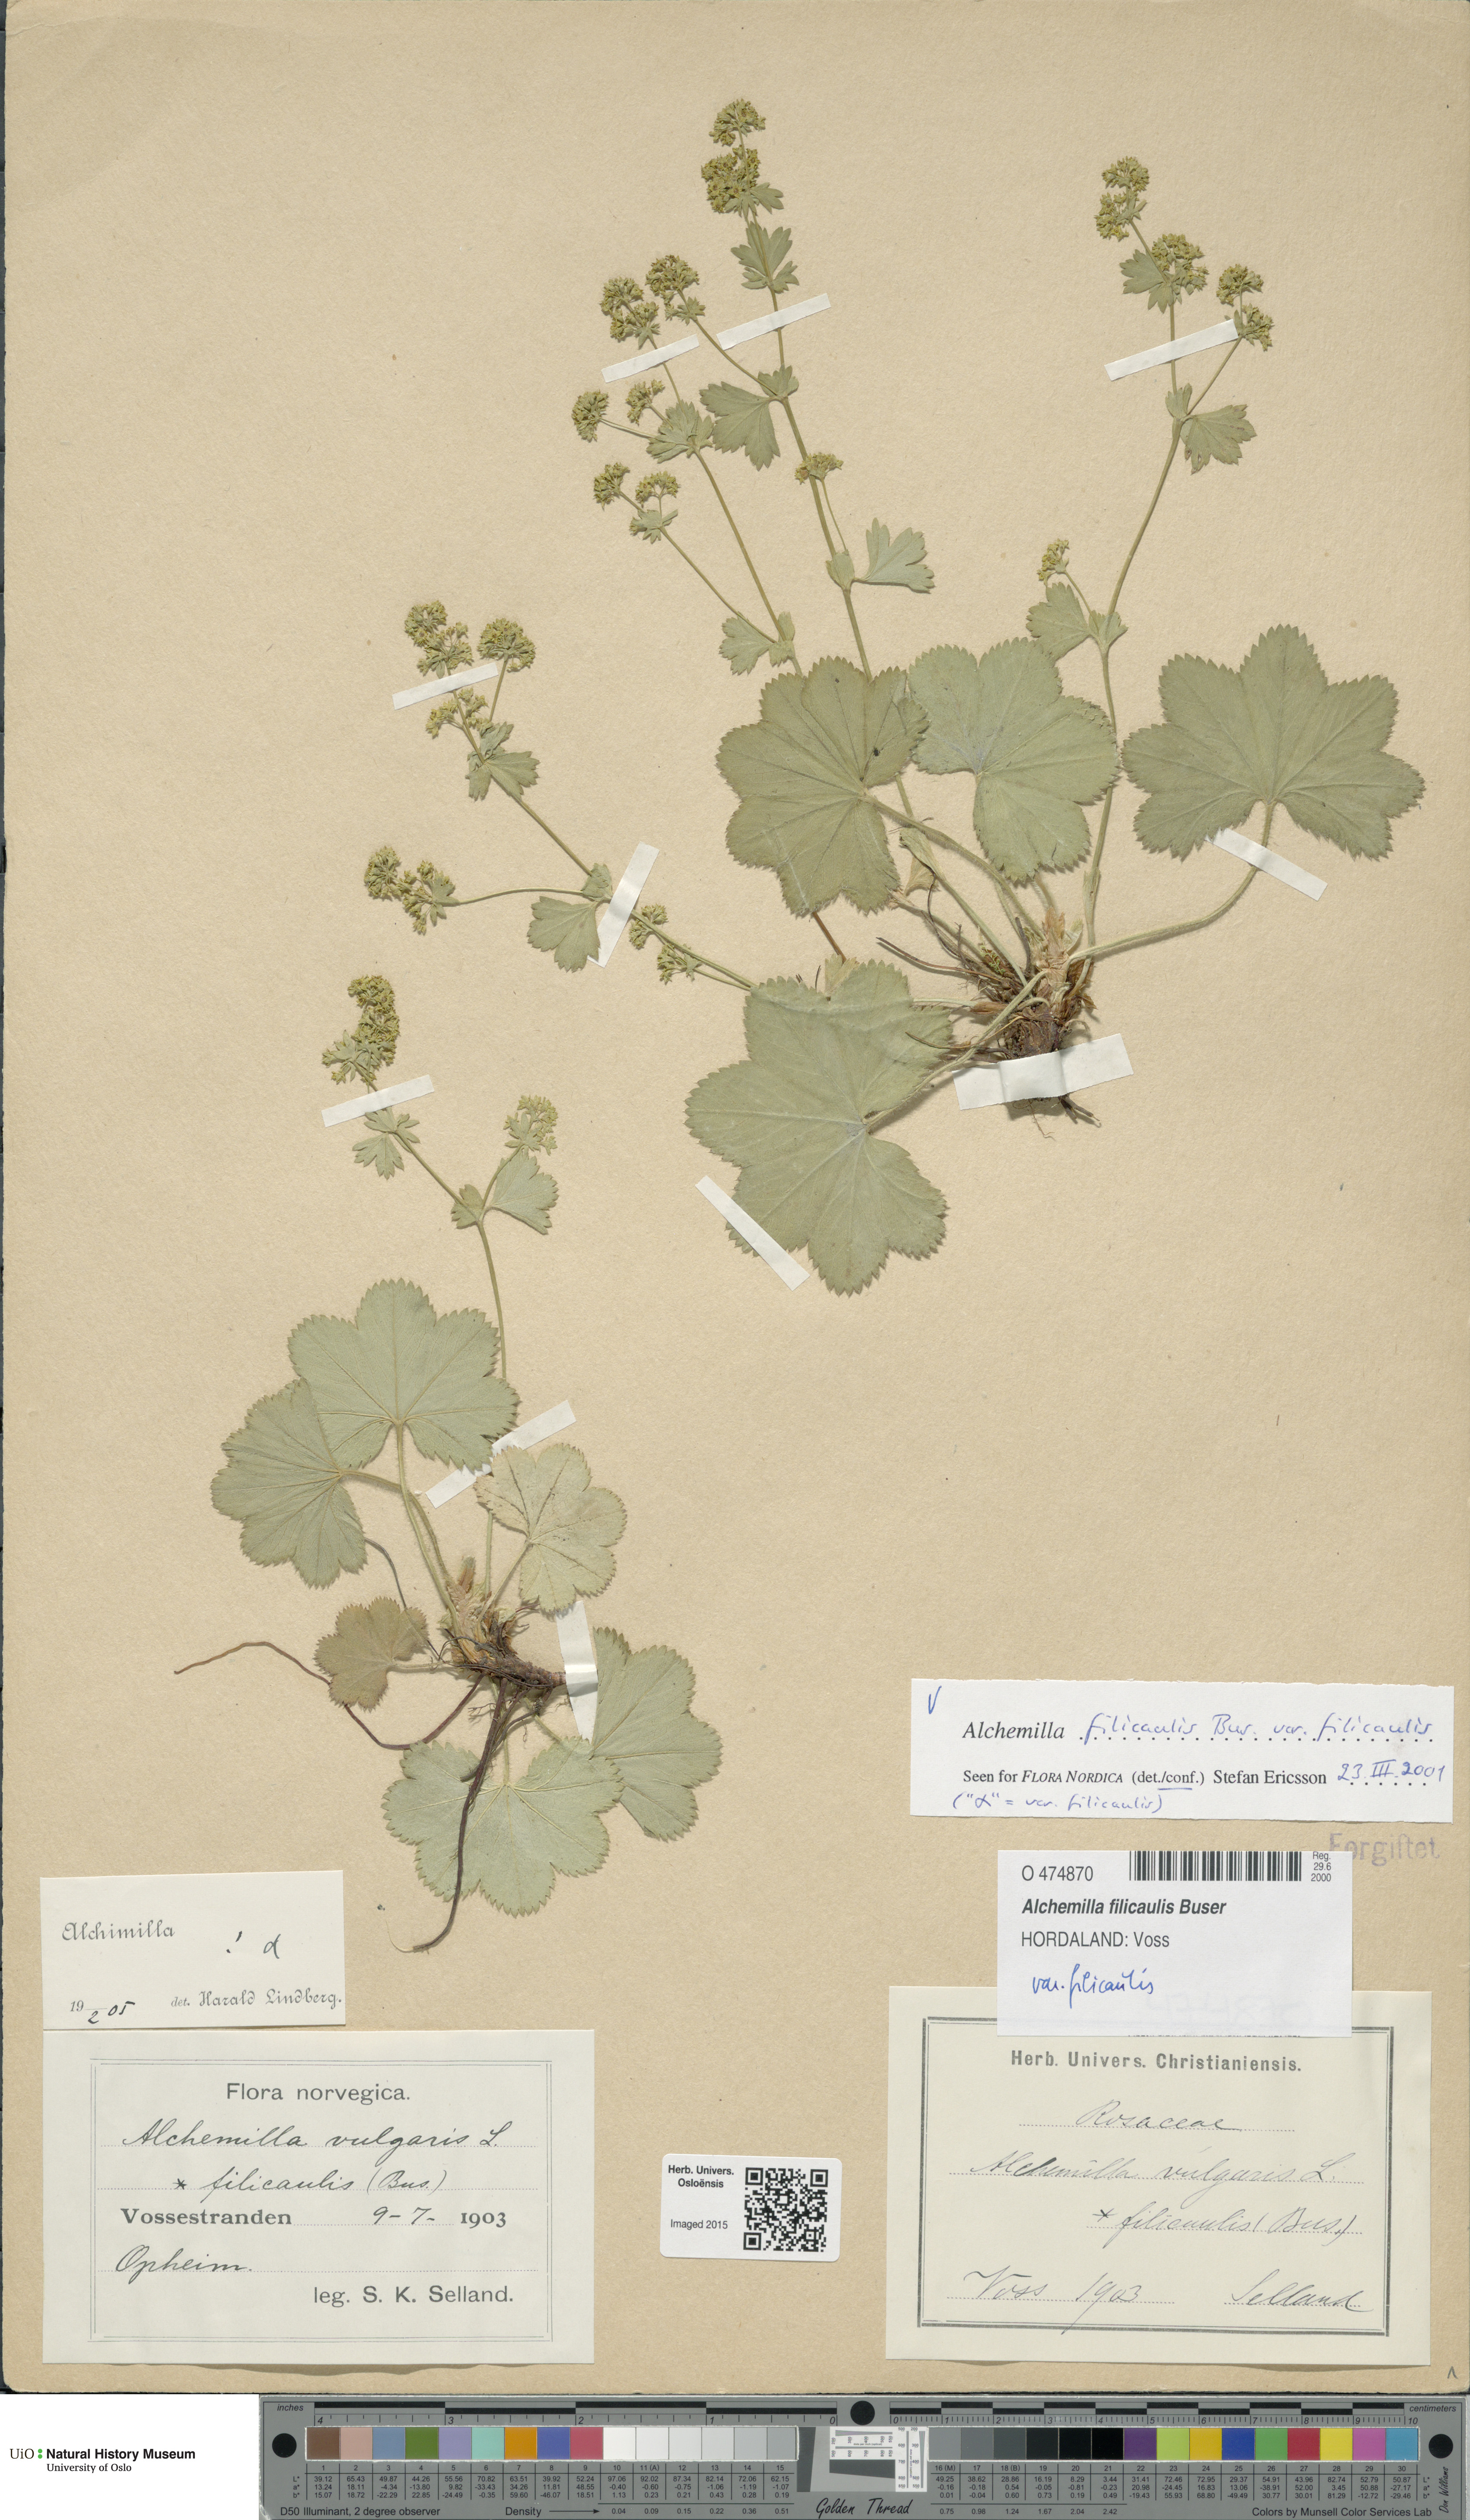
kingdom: Plantae
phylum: Tracheophyta
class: Magnoliopsida
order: Rosales
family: Rosaceae
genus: Alchemilla
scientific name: Alchemilla filicaulis
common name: Hairy lady's-mantle
